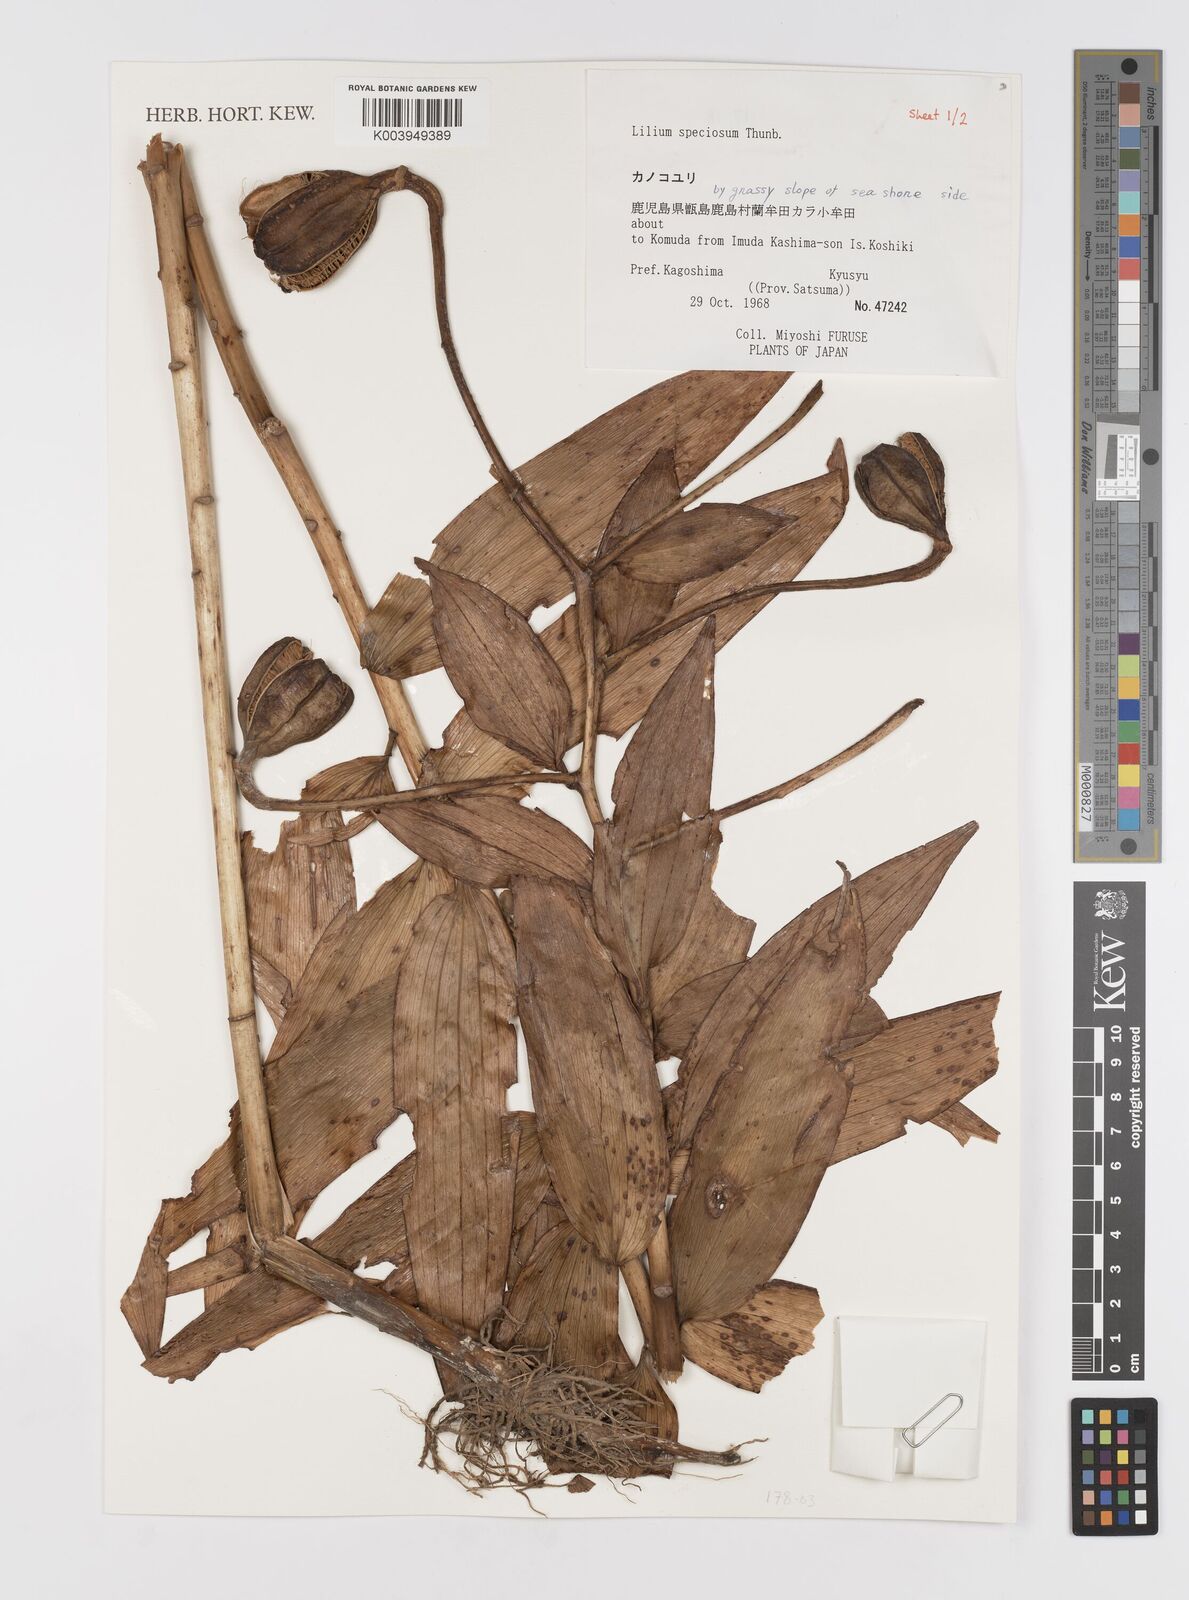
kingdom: Plantae
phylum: Tracheophyta
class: Liliopsida
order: Liliales
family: Liliaceae
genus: Lilium
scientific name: Lilium speciosum
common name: Japanese lily
